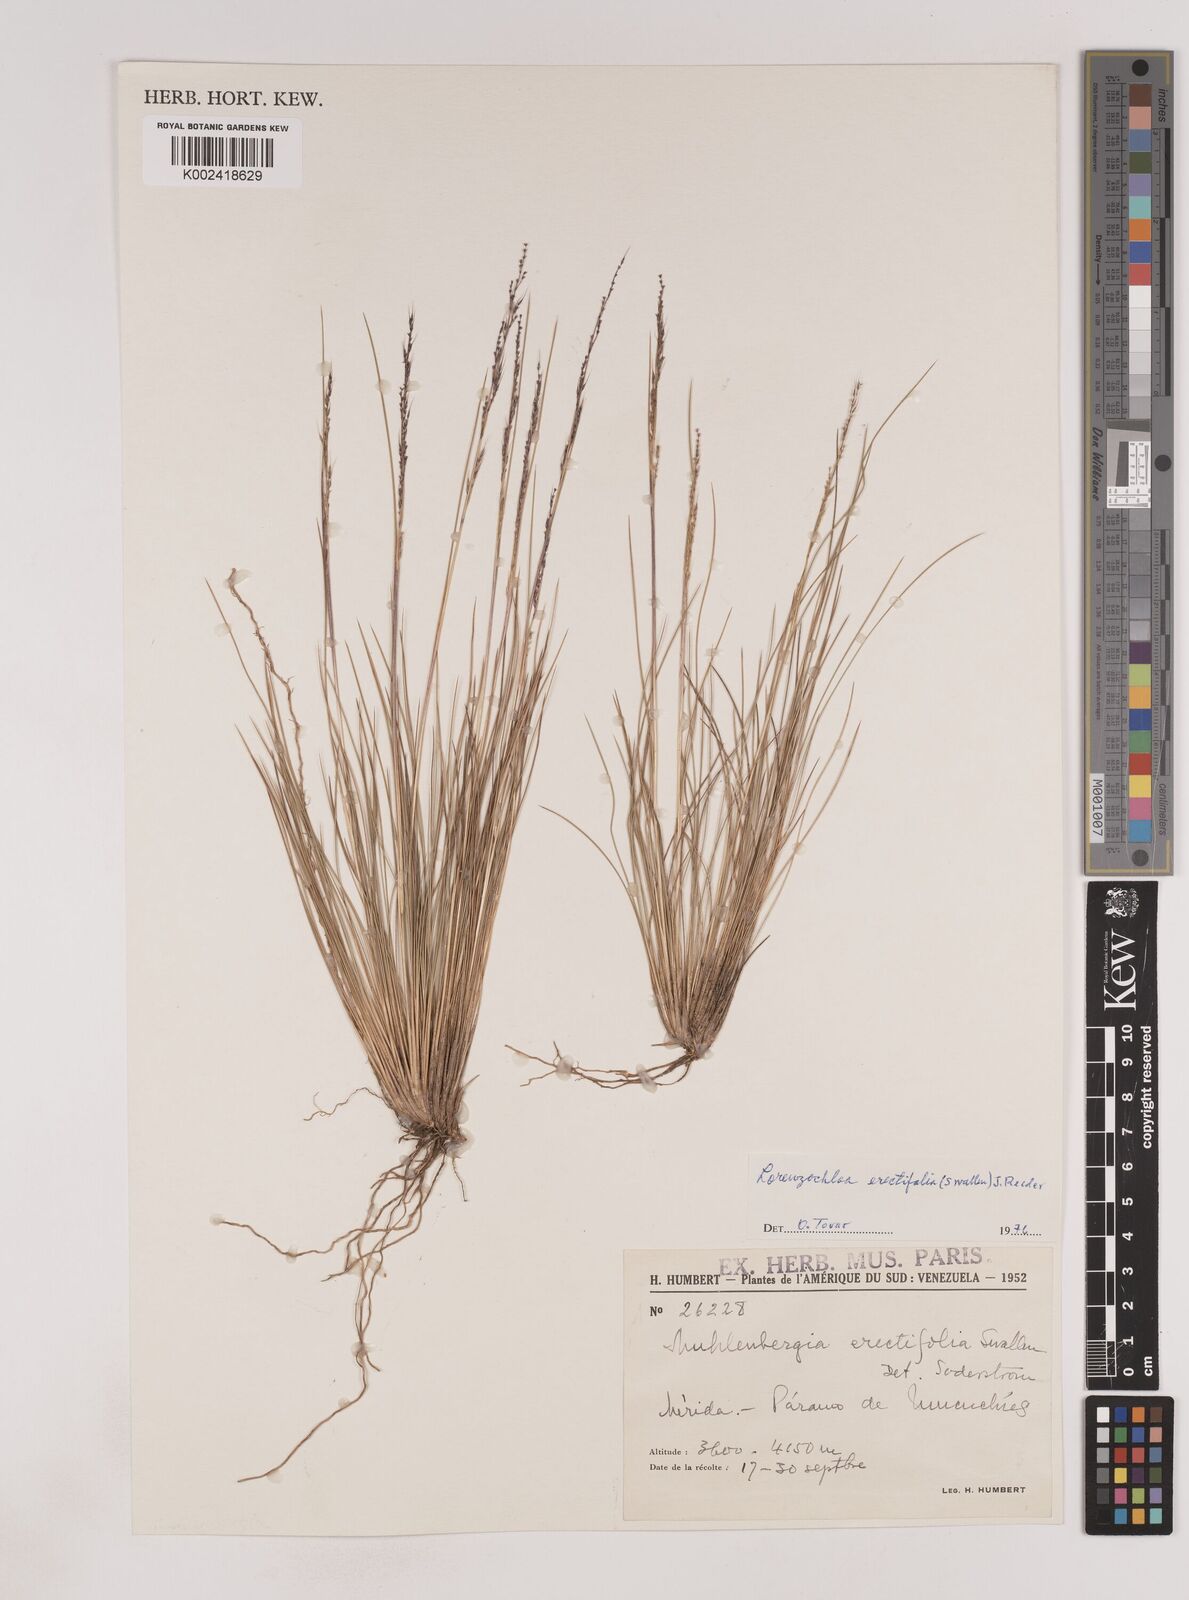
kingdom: Plantae
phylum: Tracheophyta
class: Liliopsida
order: Poales
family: Poaceae
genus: Lorenzochloa
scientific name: Lorenzochloa erectifolia
